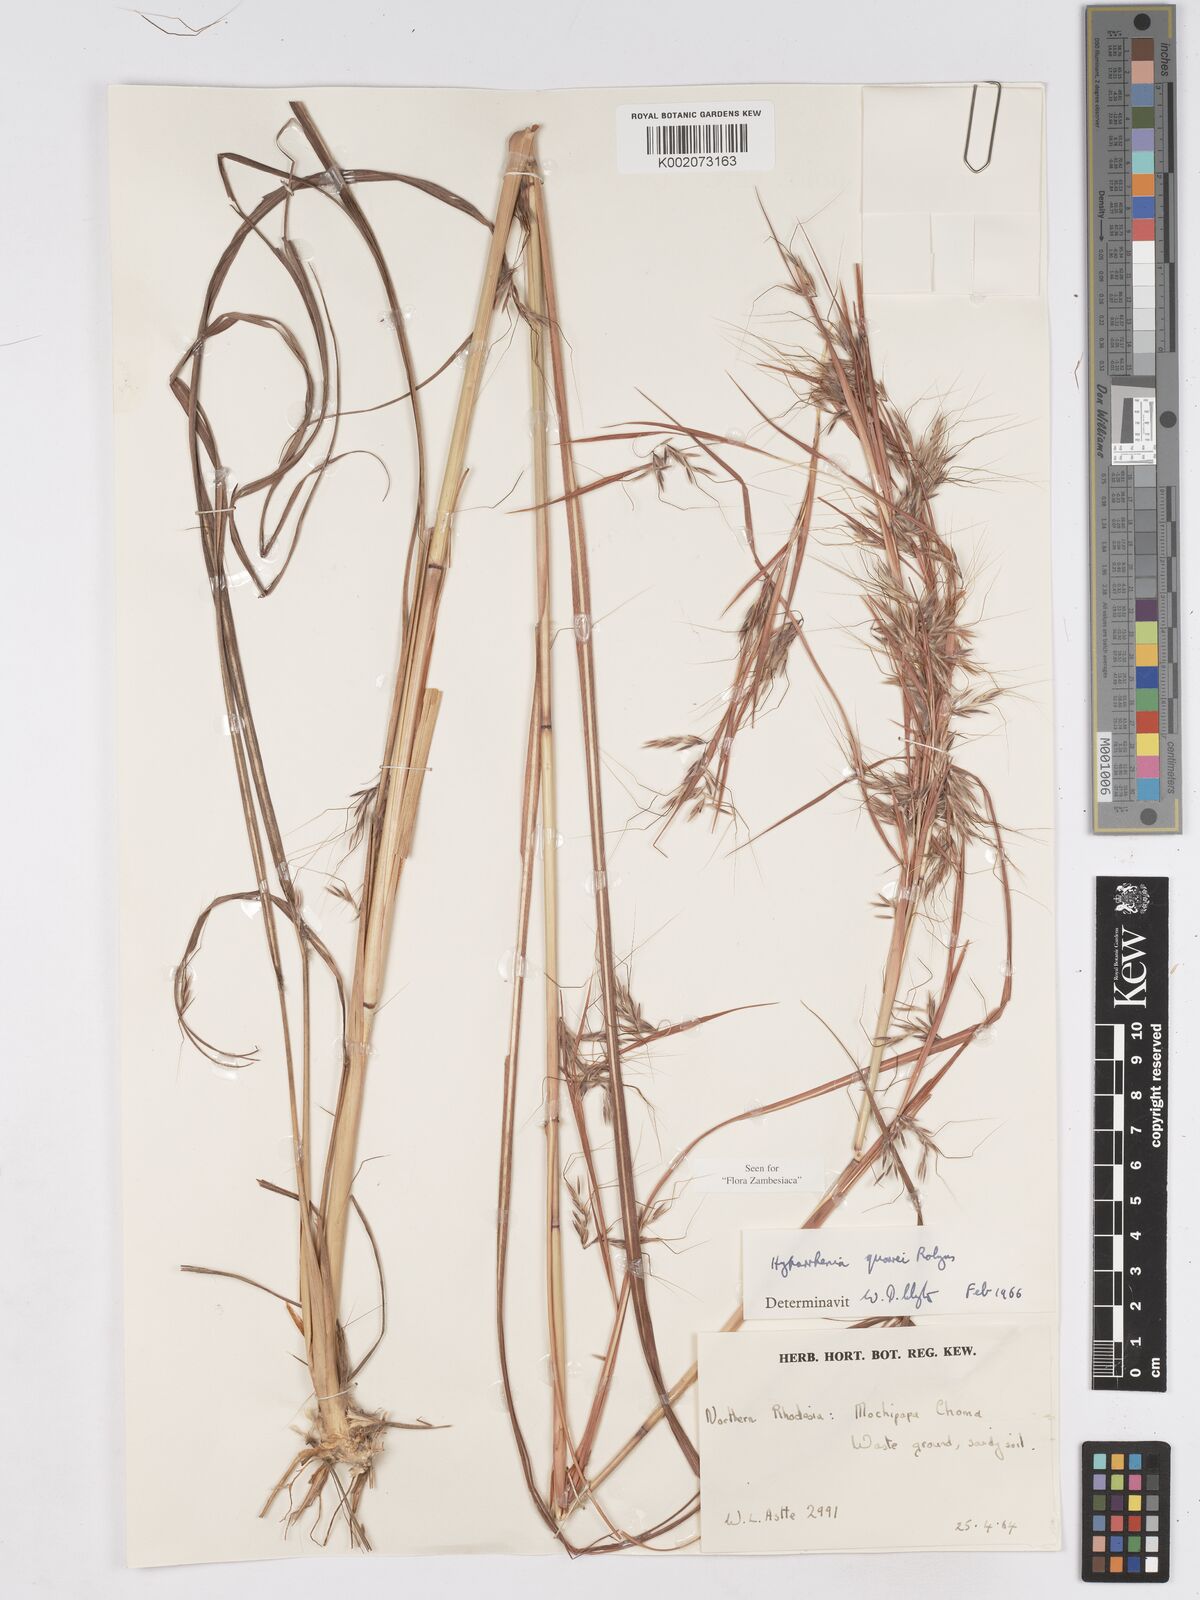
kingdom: Plantae
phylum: Tracheophyta
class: Liliopsida
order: Poales
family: Poaceae
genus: Hyparrhenia
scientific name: Hyparrhenia quarrei
